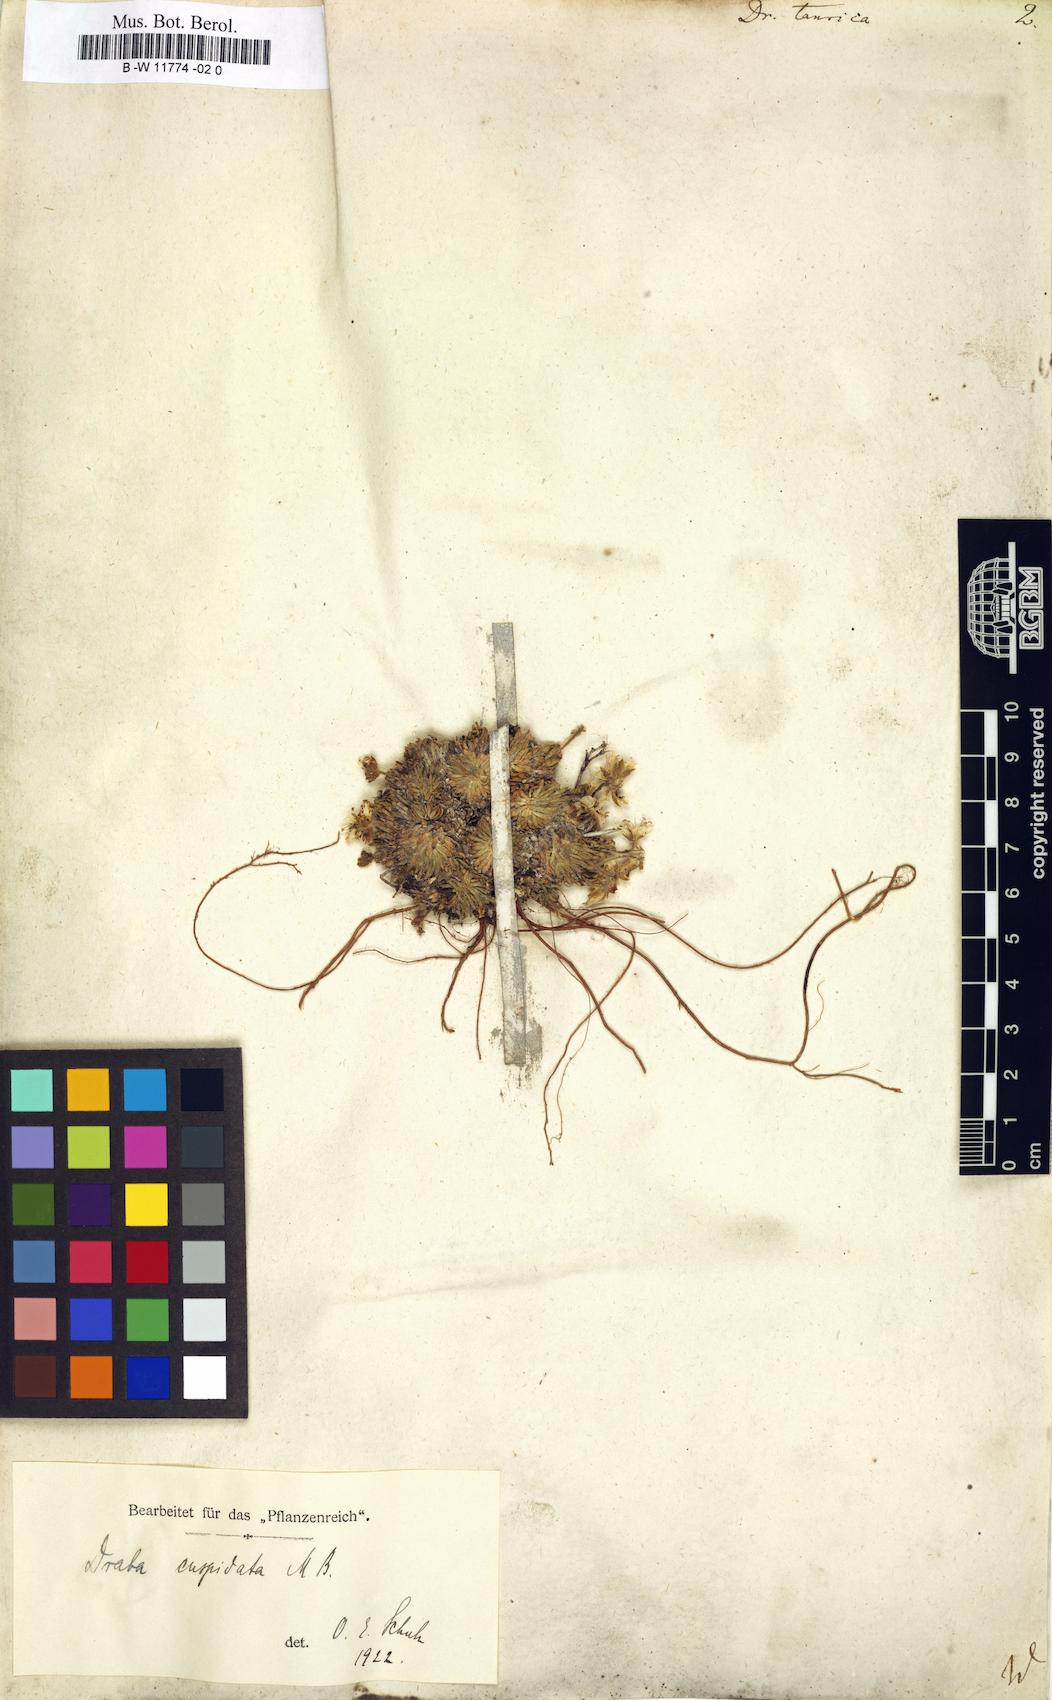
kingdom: Plantae
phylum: Tracheophyta
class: Magnoliopsida
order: Brassicales
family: Brassicaceae
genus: Draba
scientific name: Draba cuspidata
